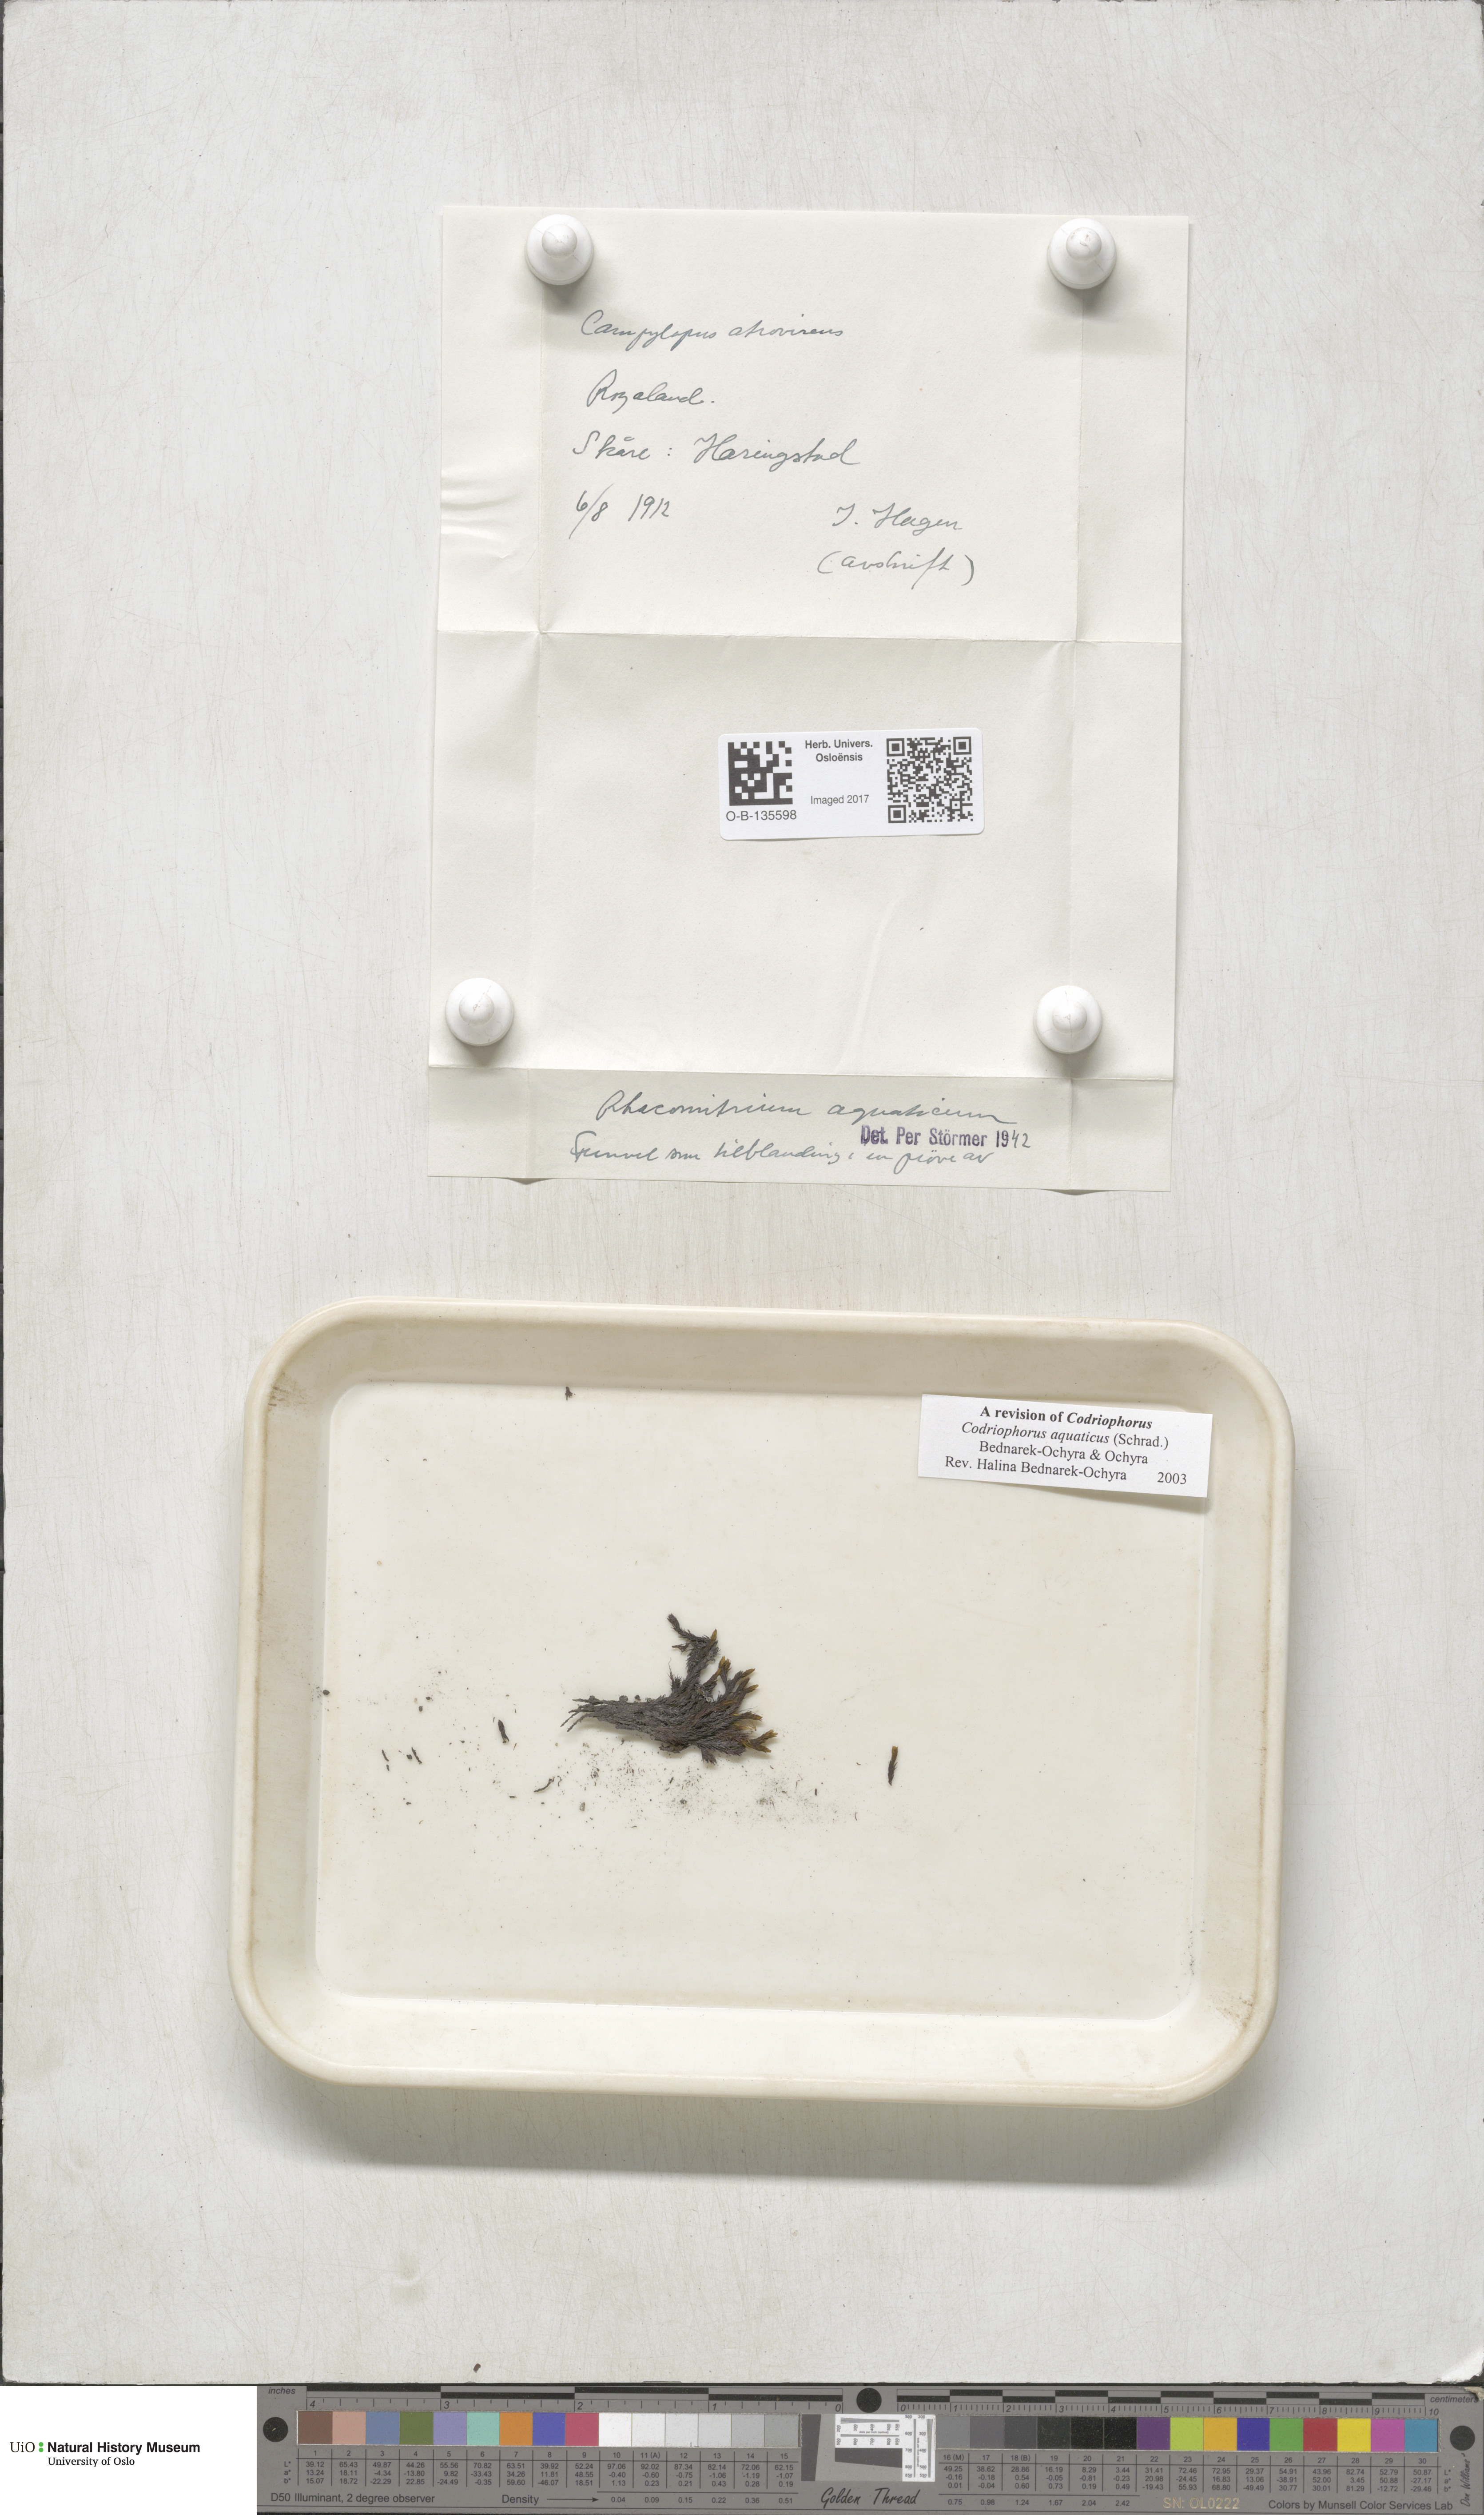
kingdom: Plantae
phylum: Bryophyta
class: Bryopsida
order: Grimmiales
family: Grimmiaceae
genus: Codriophorus
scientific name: Codriophorus aquaticus
